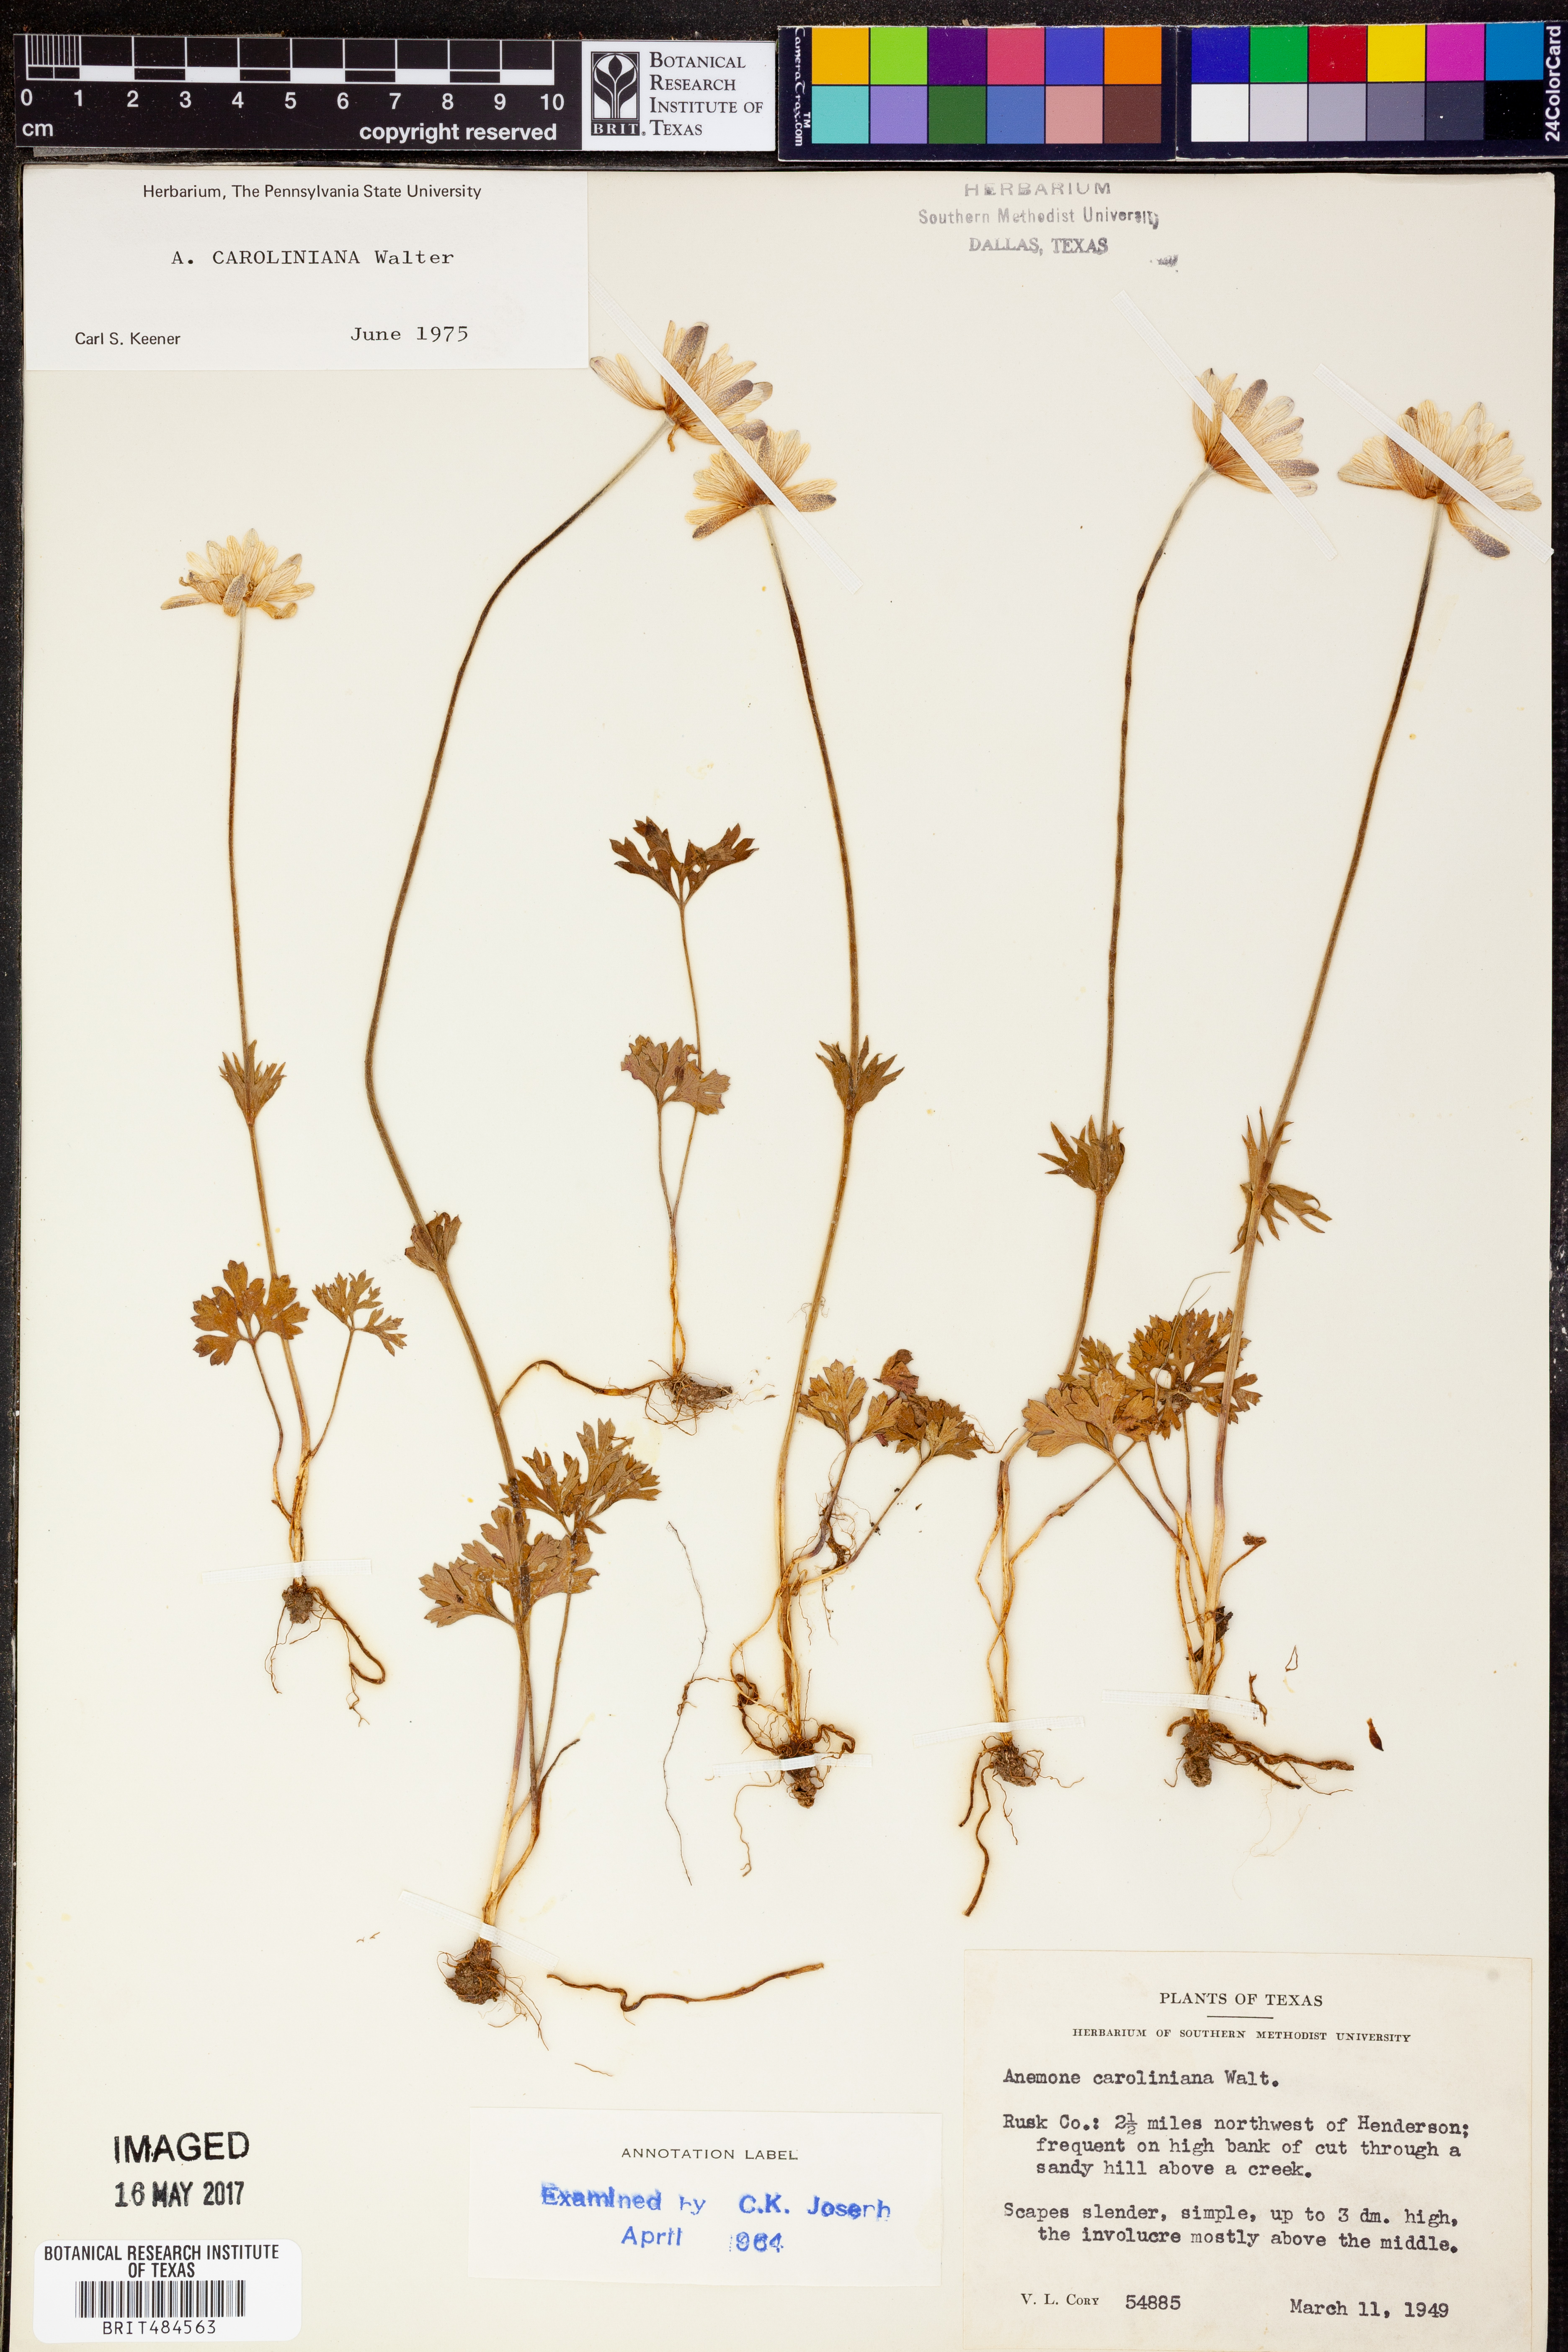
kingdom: Plantae
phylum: Tracheophyta
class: Magnoliopsida
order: Ranunculales
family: Ranunculaceae
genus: Anemone
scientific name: Anemone caroliniana
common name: Carolina anemone
